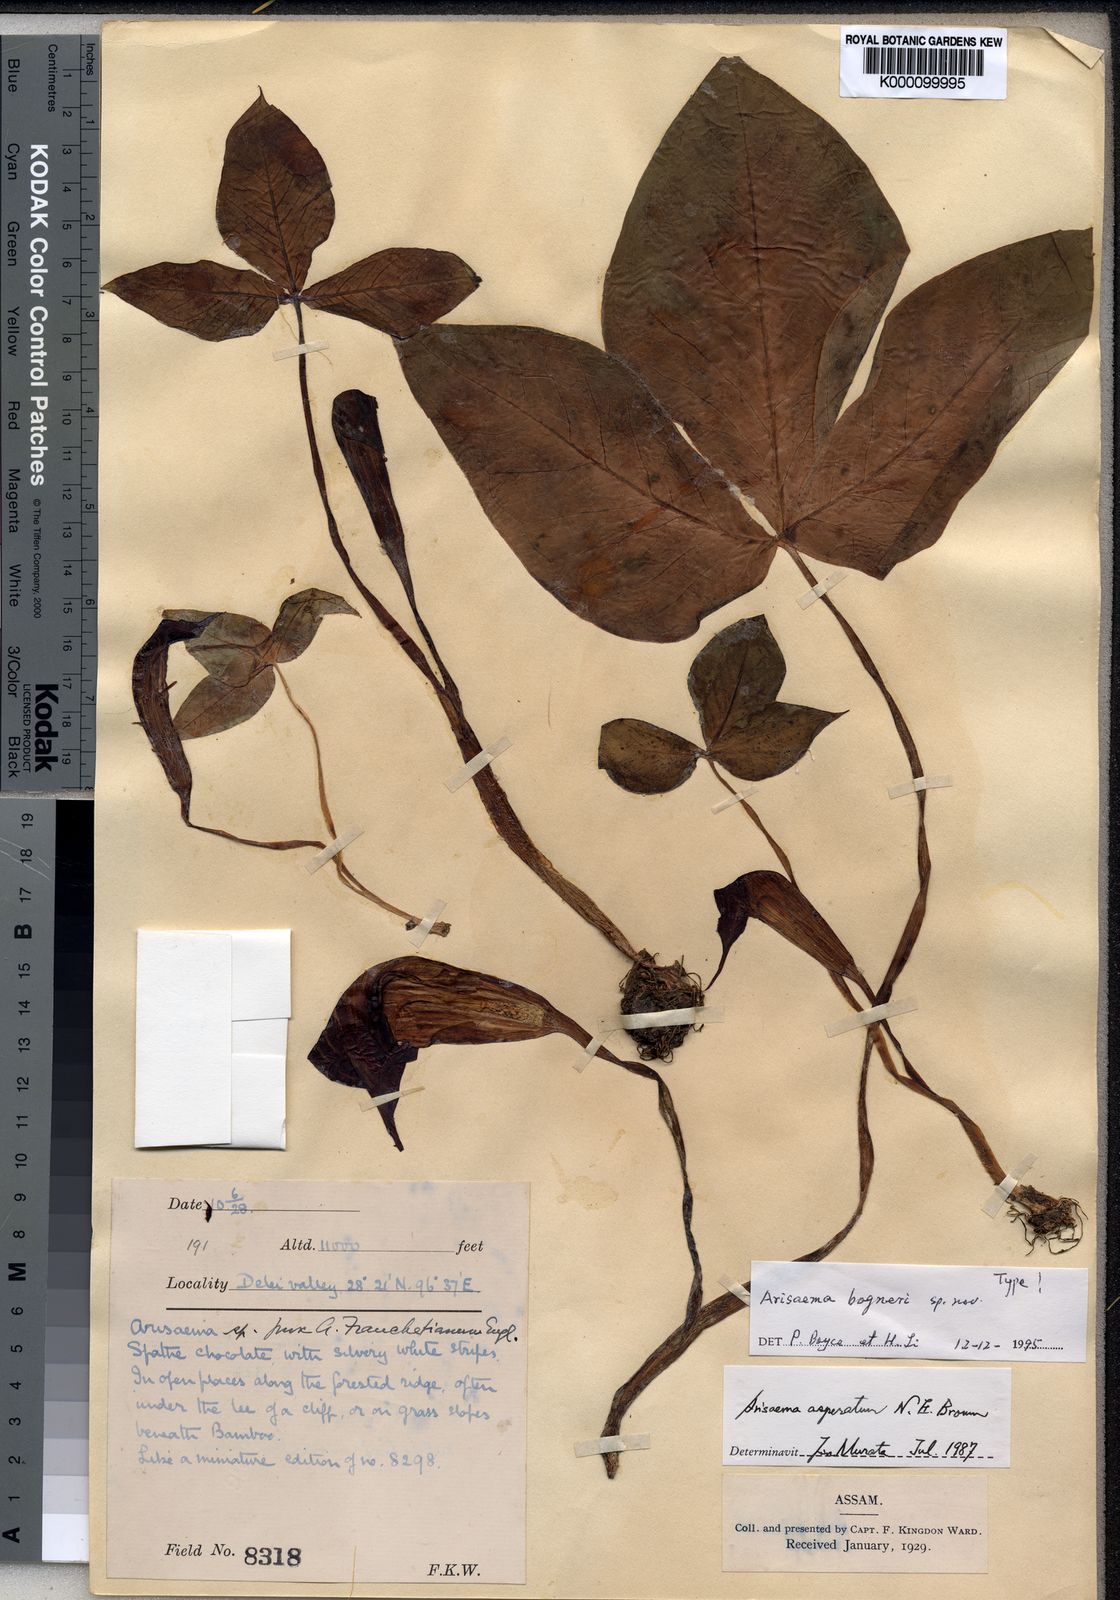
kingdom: Plantae
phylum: Tracheophyta
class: Liliopsida
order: Alismatales
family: Araceae
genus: Arisaema
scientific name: Arisaema bogneri
